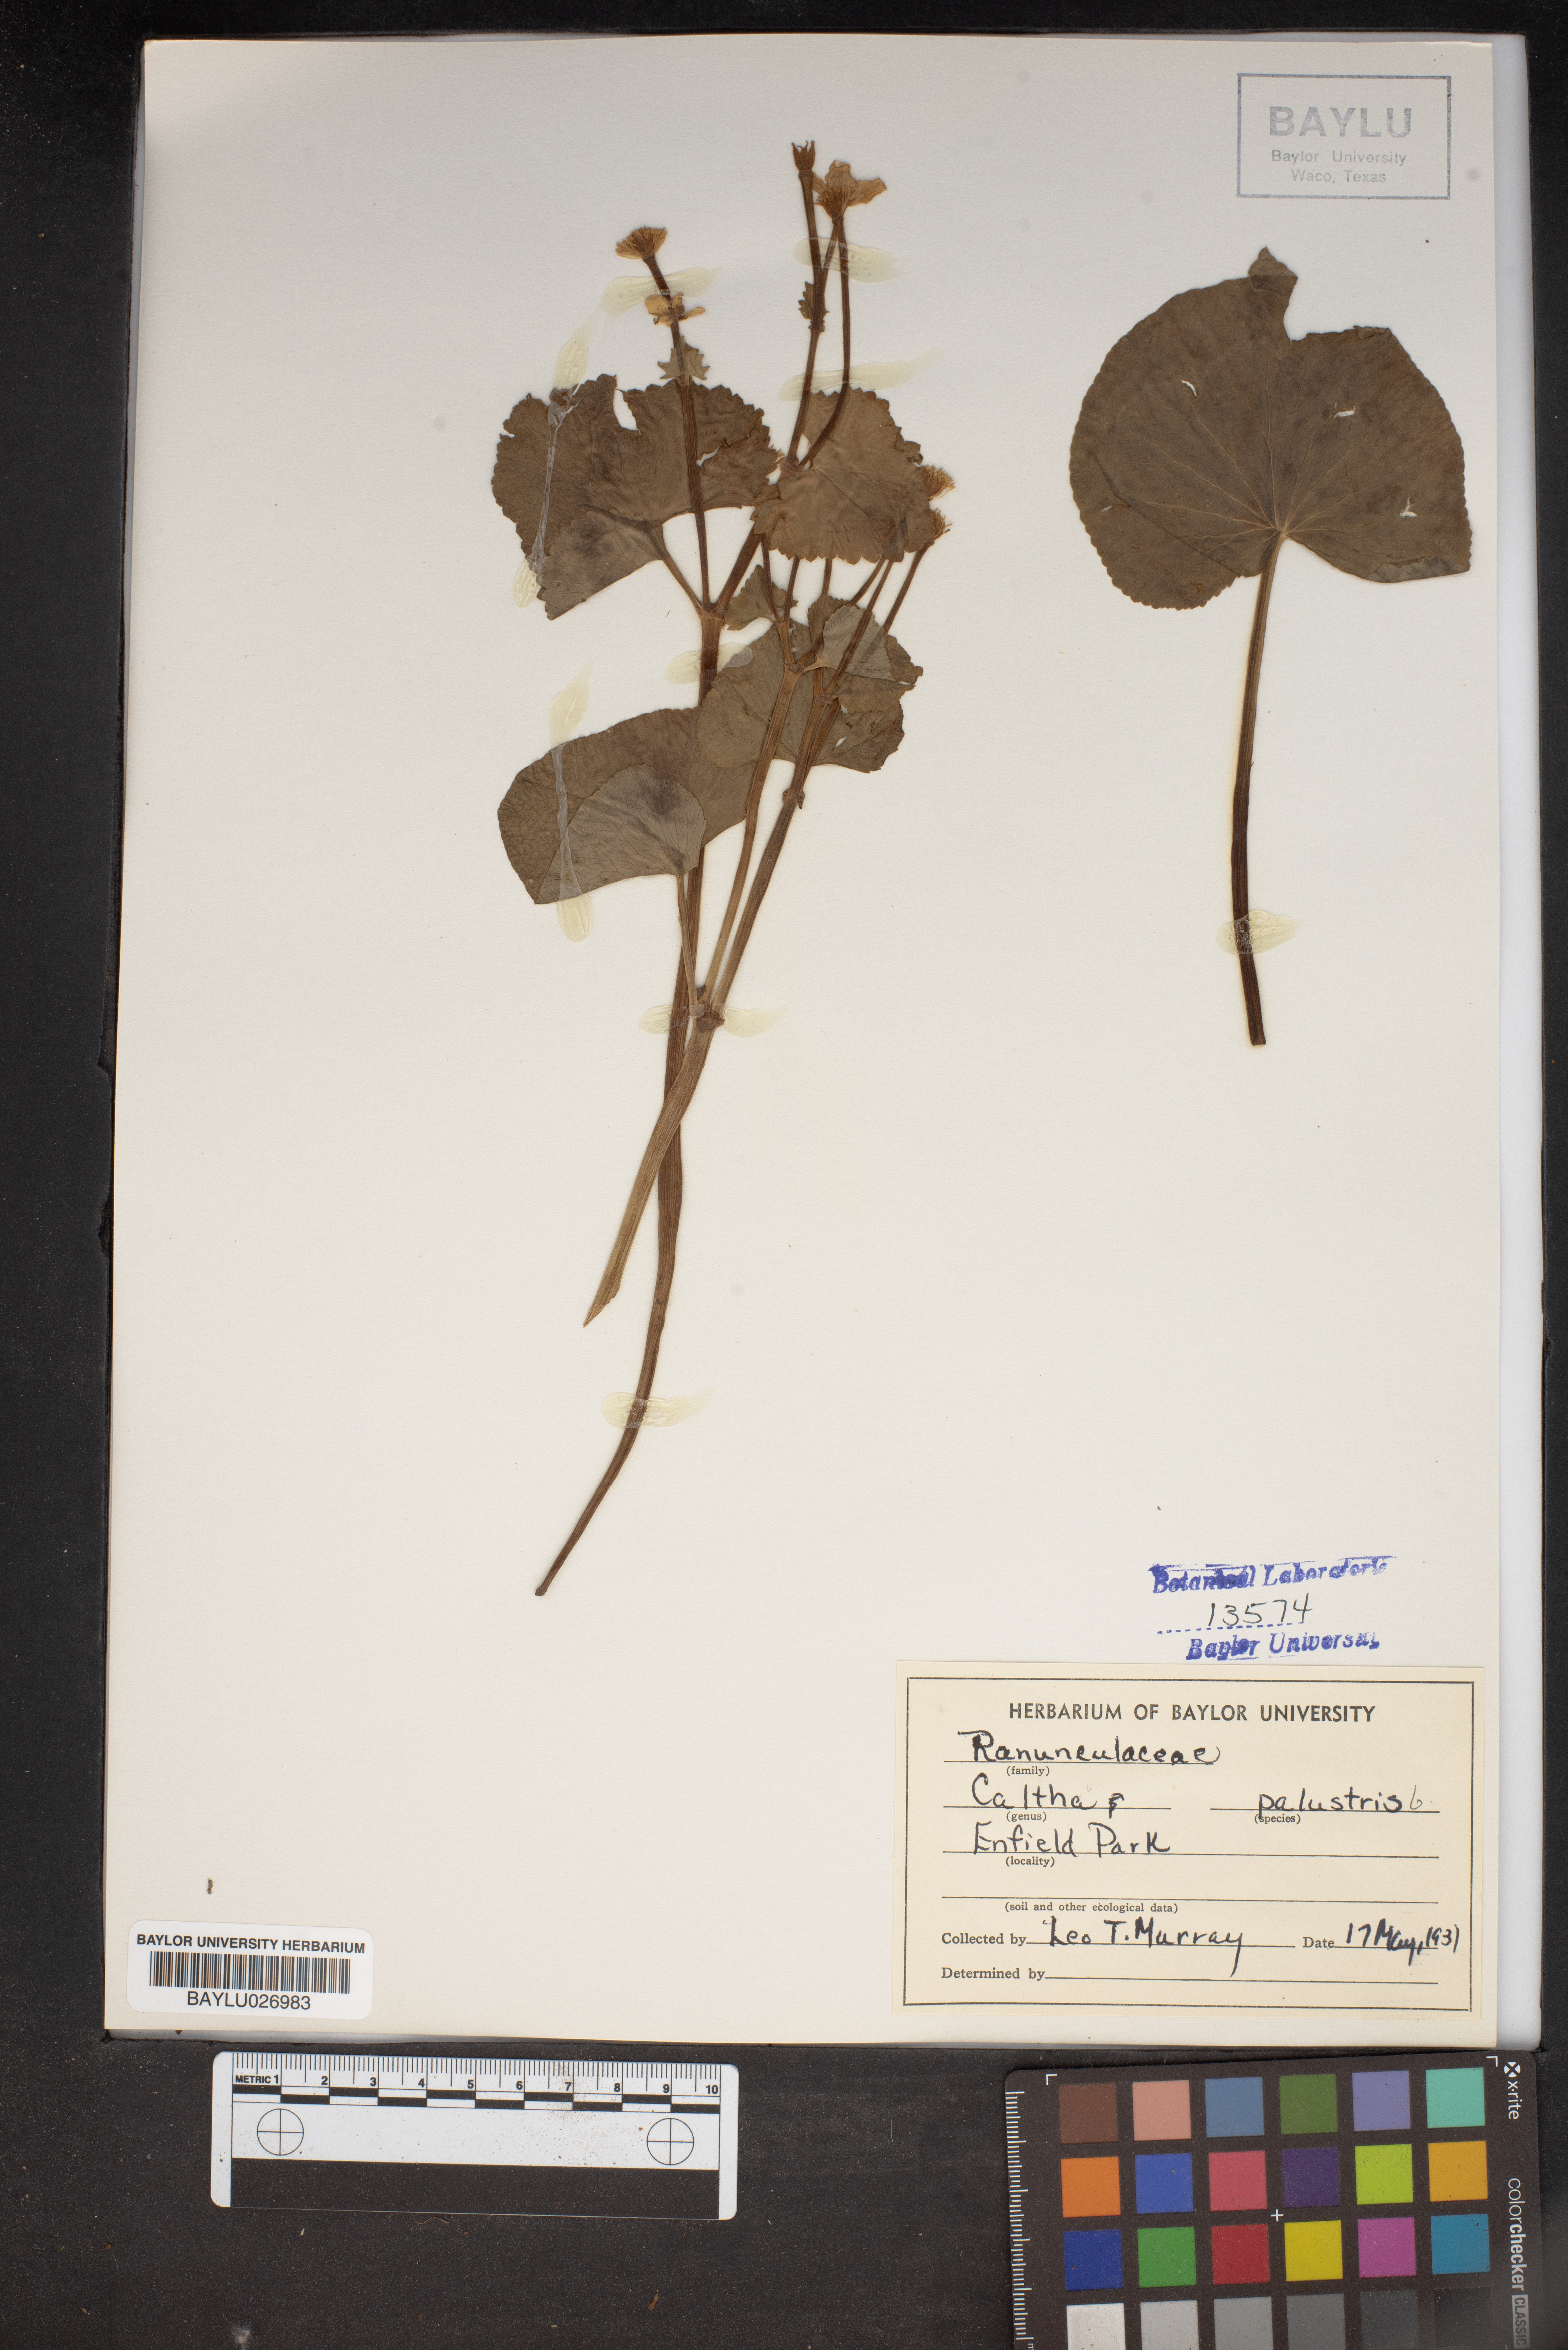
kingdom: Plantae
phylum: Tracheophyta
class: Magnoliopsida
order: Ranunculales
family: Ranunculaceae
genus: Caltha
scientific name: Caltha palustris
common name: Marsh marigold
